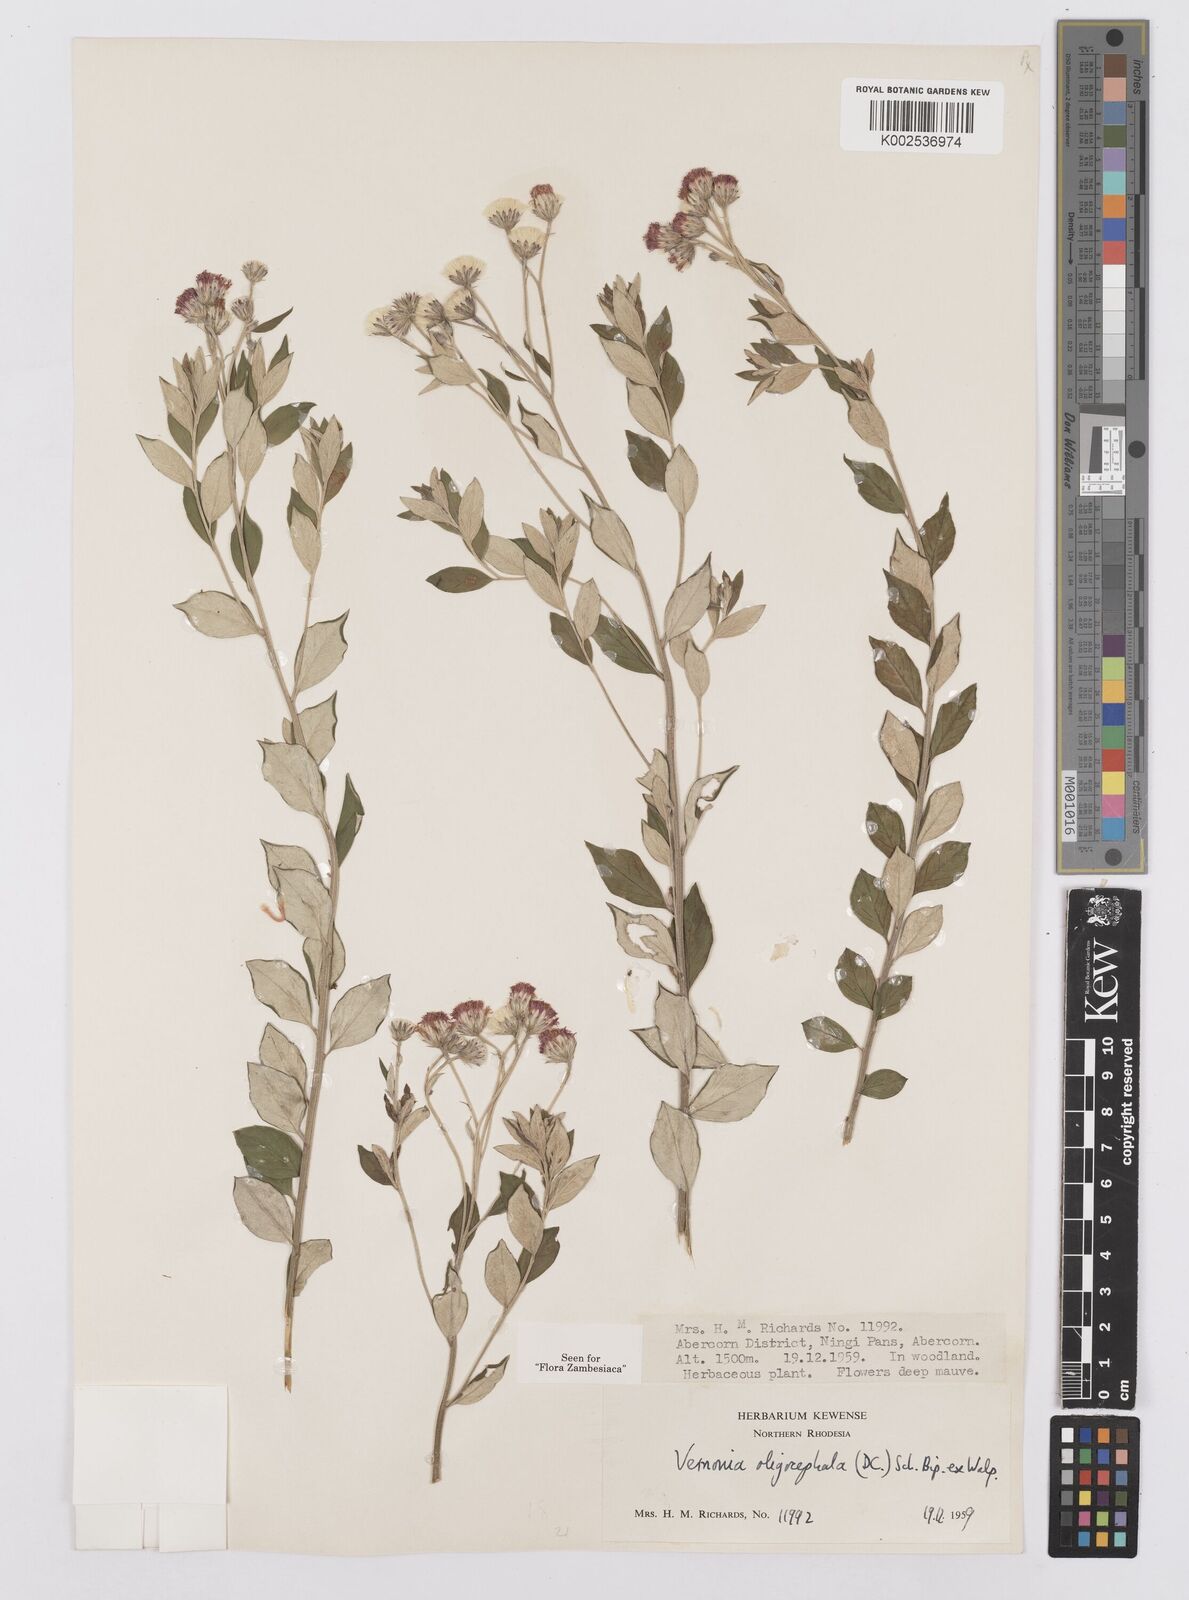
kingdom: Plantae
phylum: Tracheophyta
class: Magnoliopsida
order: Asterales
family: Asteraceae
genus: Hilliardiella
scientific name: Hilliardiella oligocephala
